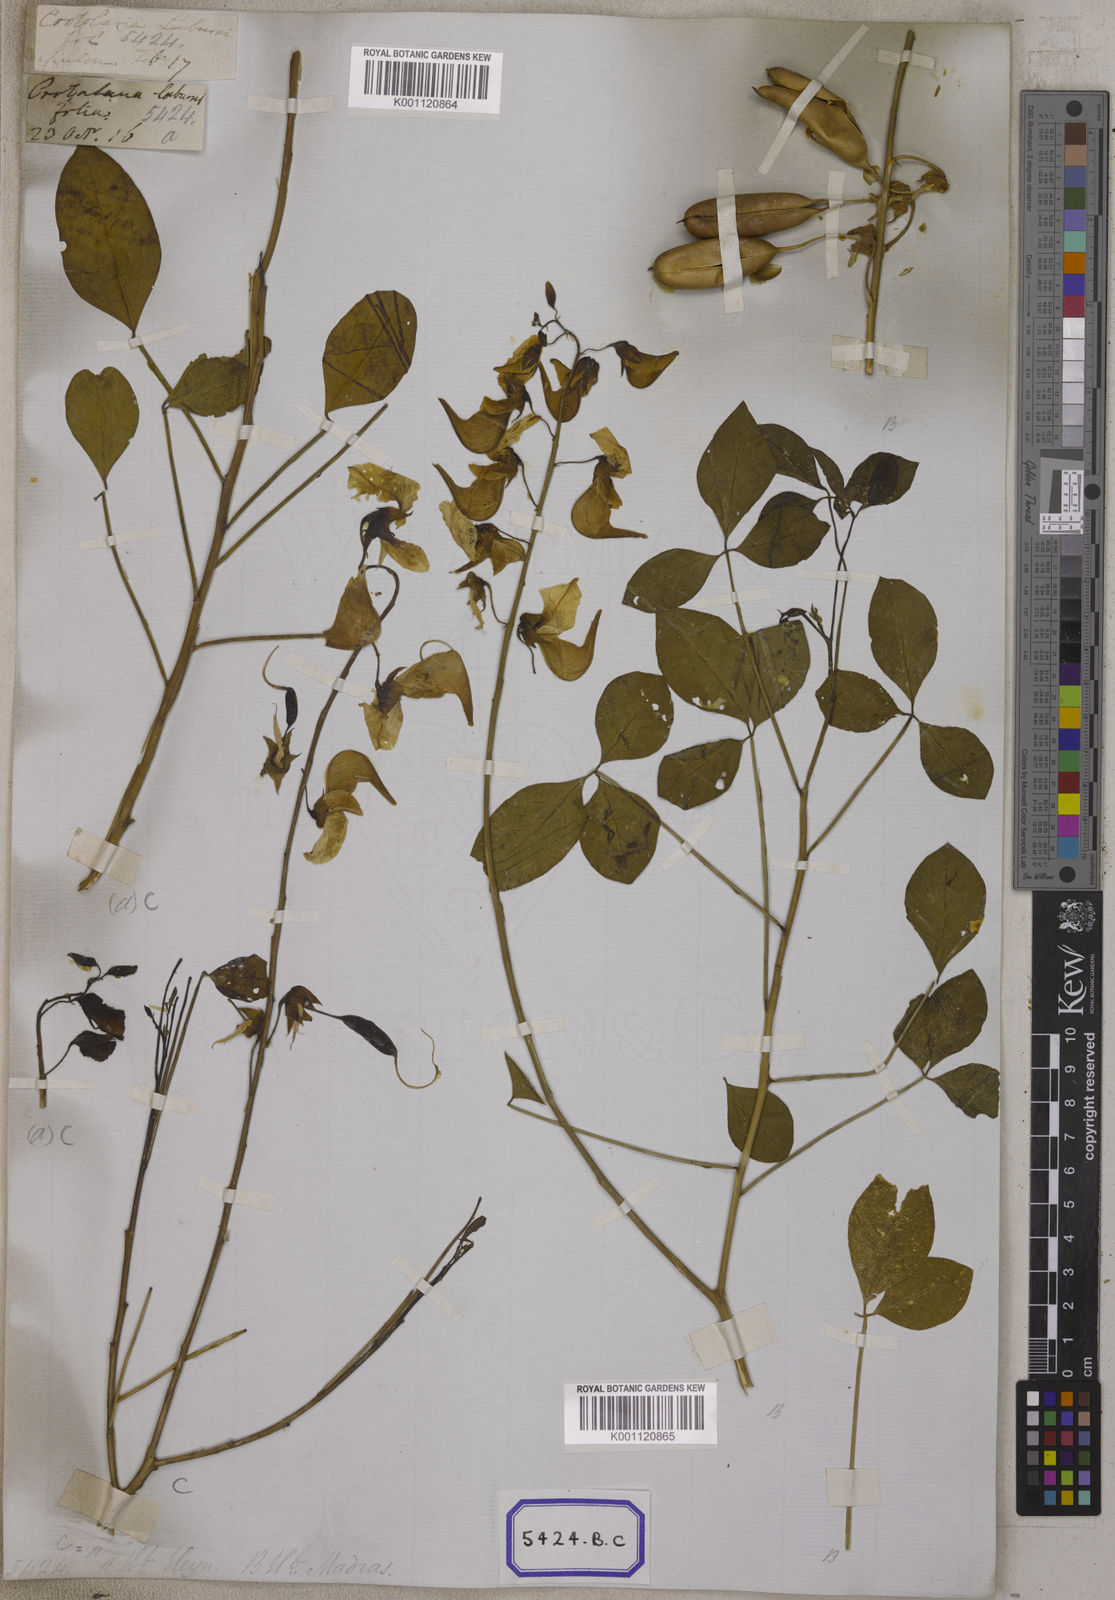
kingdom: Plantae
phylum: Tracheophyta
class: Magnoliopsida
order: Fabales
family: Fabaceae
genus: Crotalaria
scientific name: Crotalaria laburnifolia
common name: Birdflower
